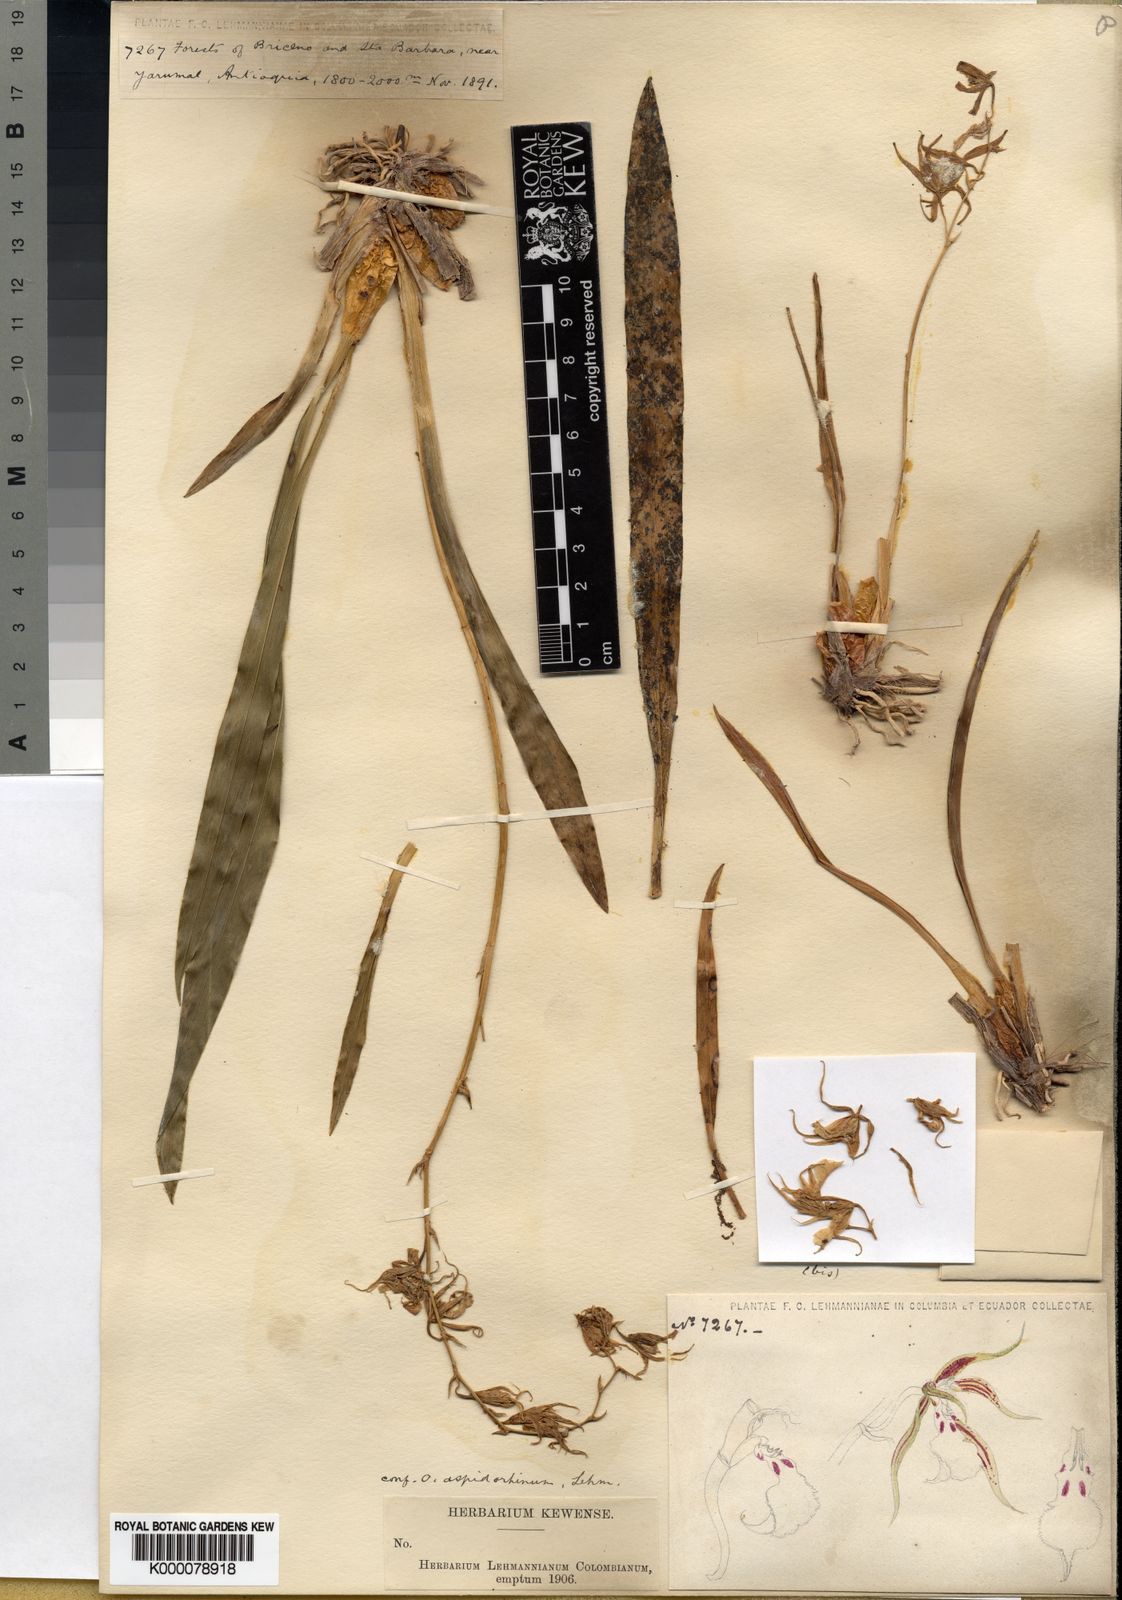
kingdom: Plantae
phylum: Tracheophyta
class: Liliopsida
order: Asparagales
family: Orchidaceae
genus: Oncidium
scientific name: Oncidium aspidorhinum
